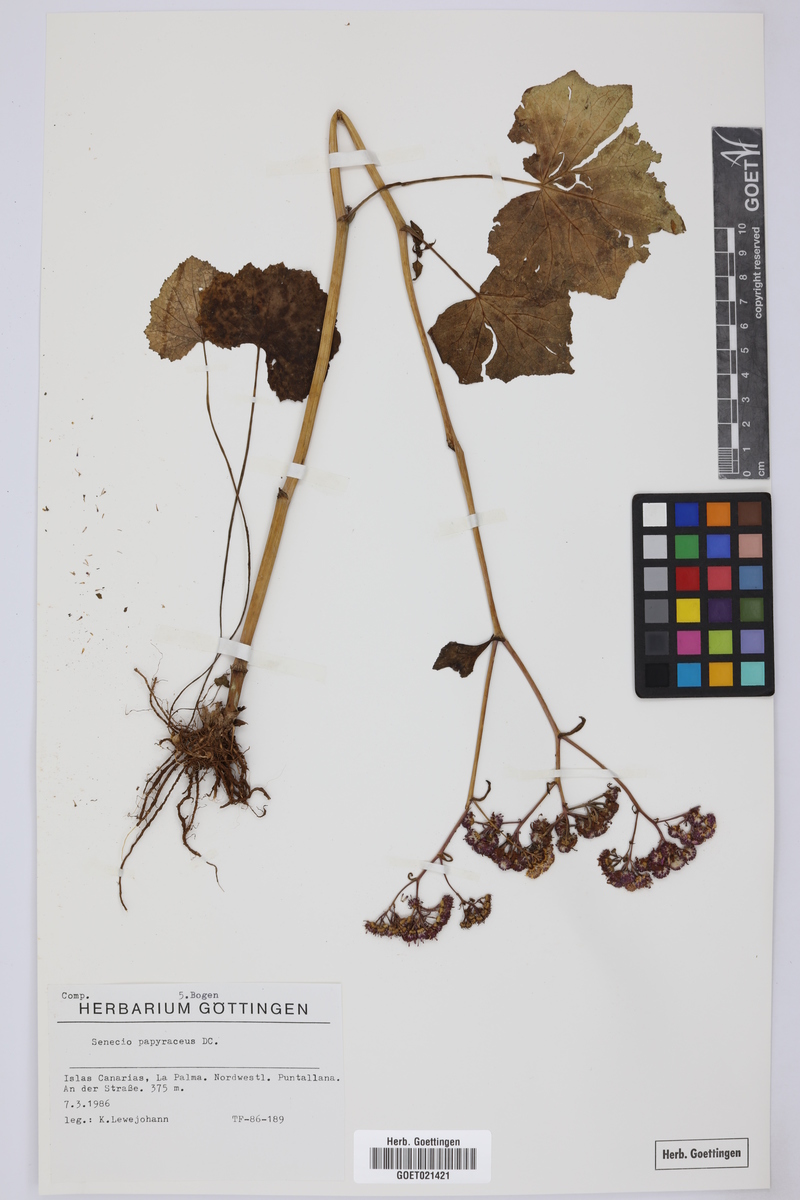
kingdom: Plantae
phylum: Tracheophyta
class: Magnoliopsida
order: Asterales
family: Asteraceae
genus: Pericallis
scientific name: Pericallis papyracea
